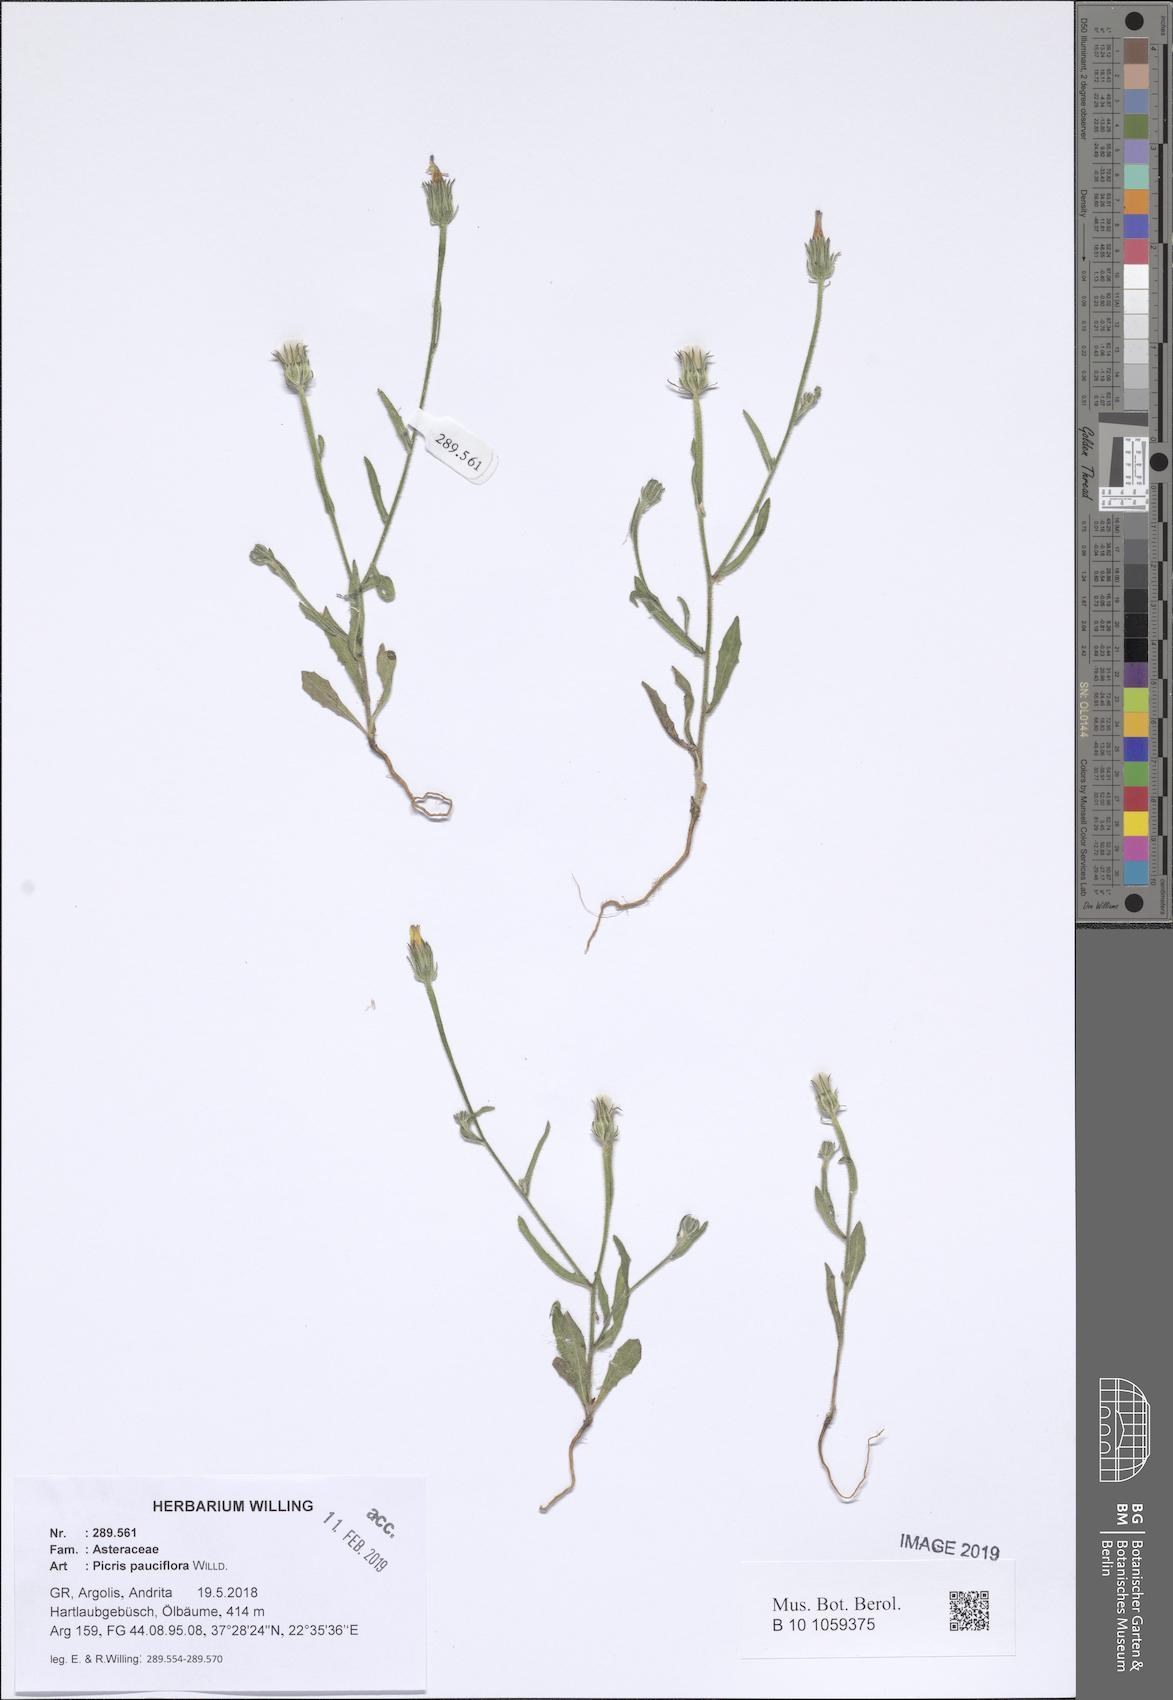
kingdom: Plantae
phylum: Tracheophyta
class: Magnoliopsida
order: Asterales
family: Asteraceae
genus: Picris
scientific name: Picris pauciflora
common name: Smallflower oxtongue
